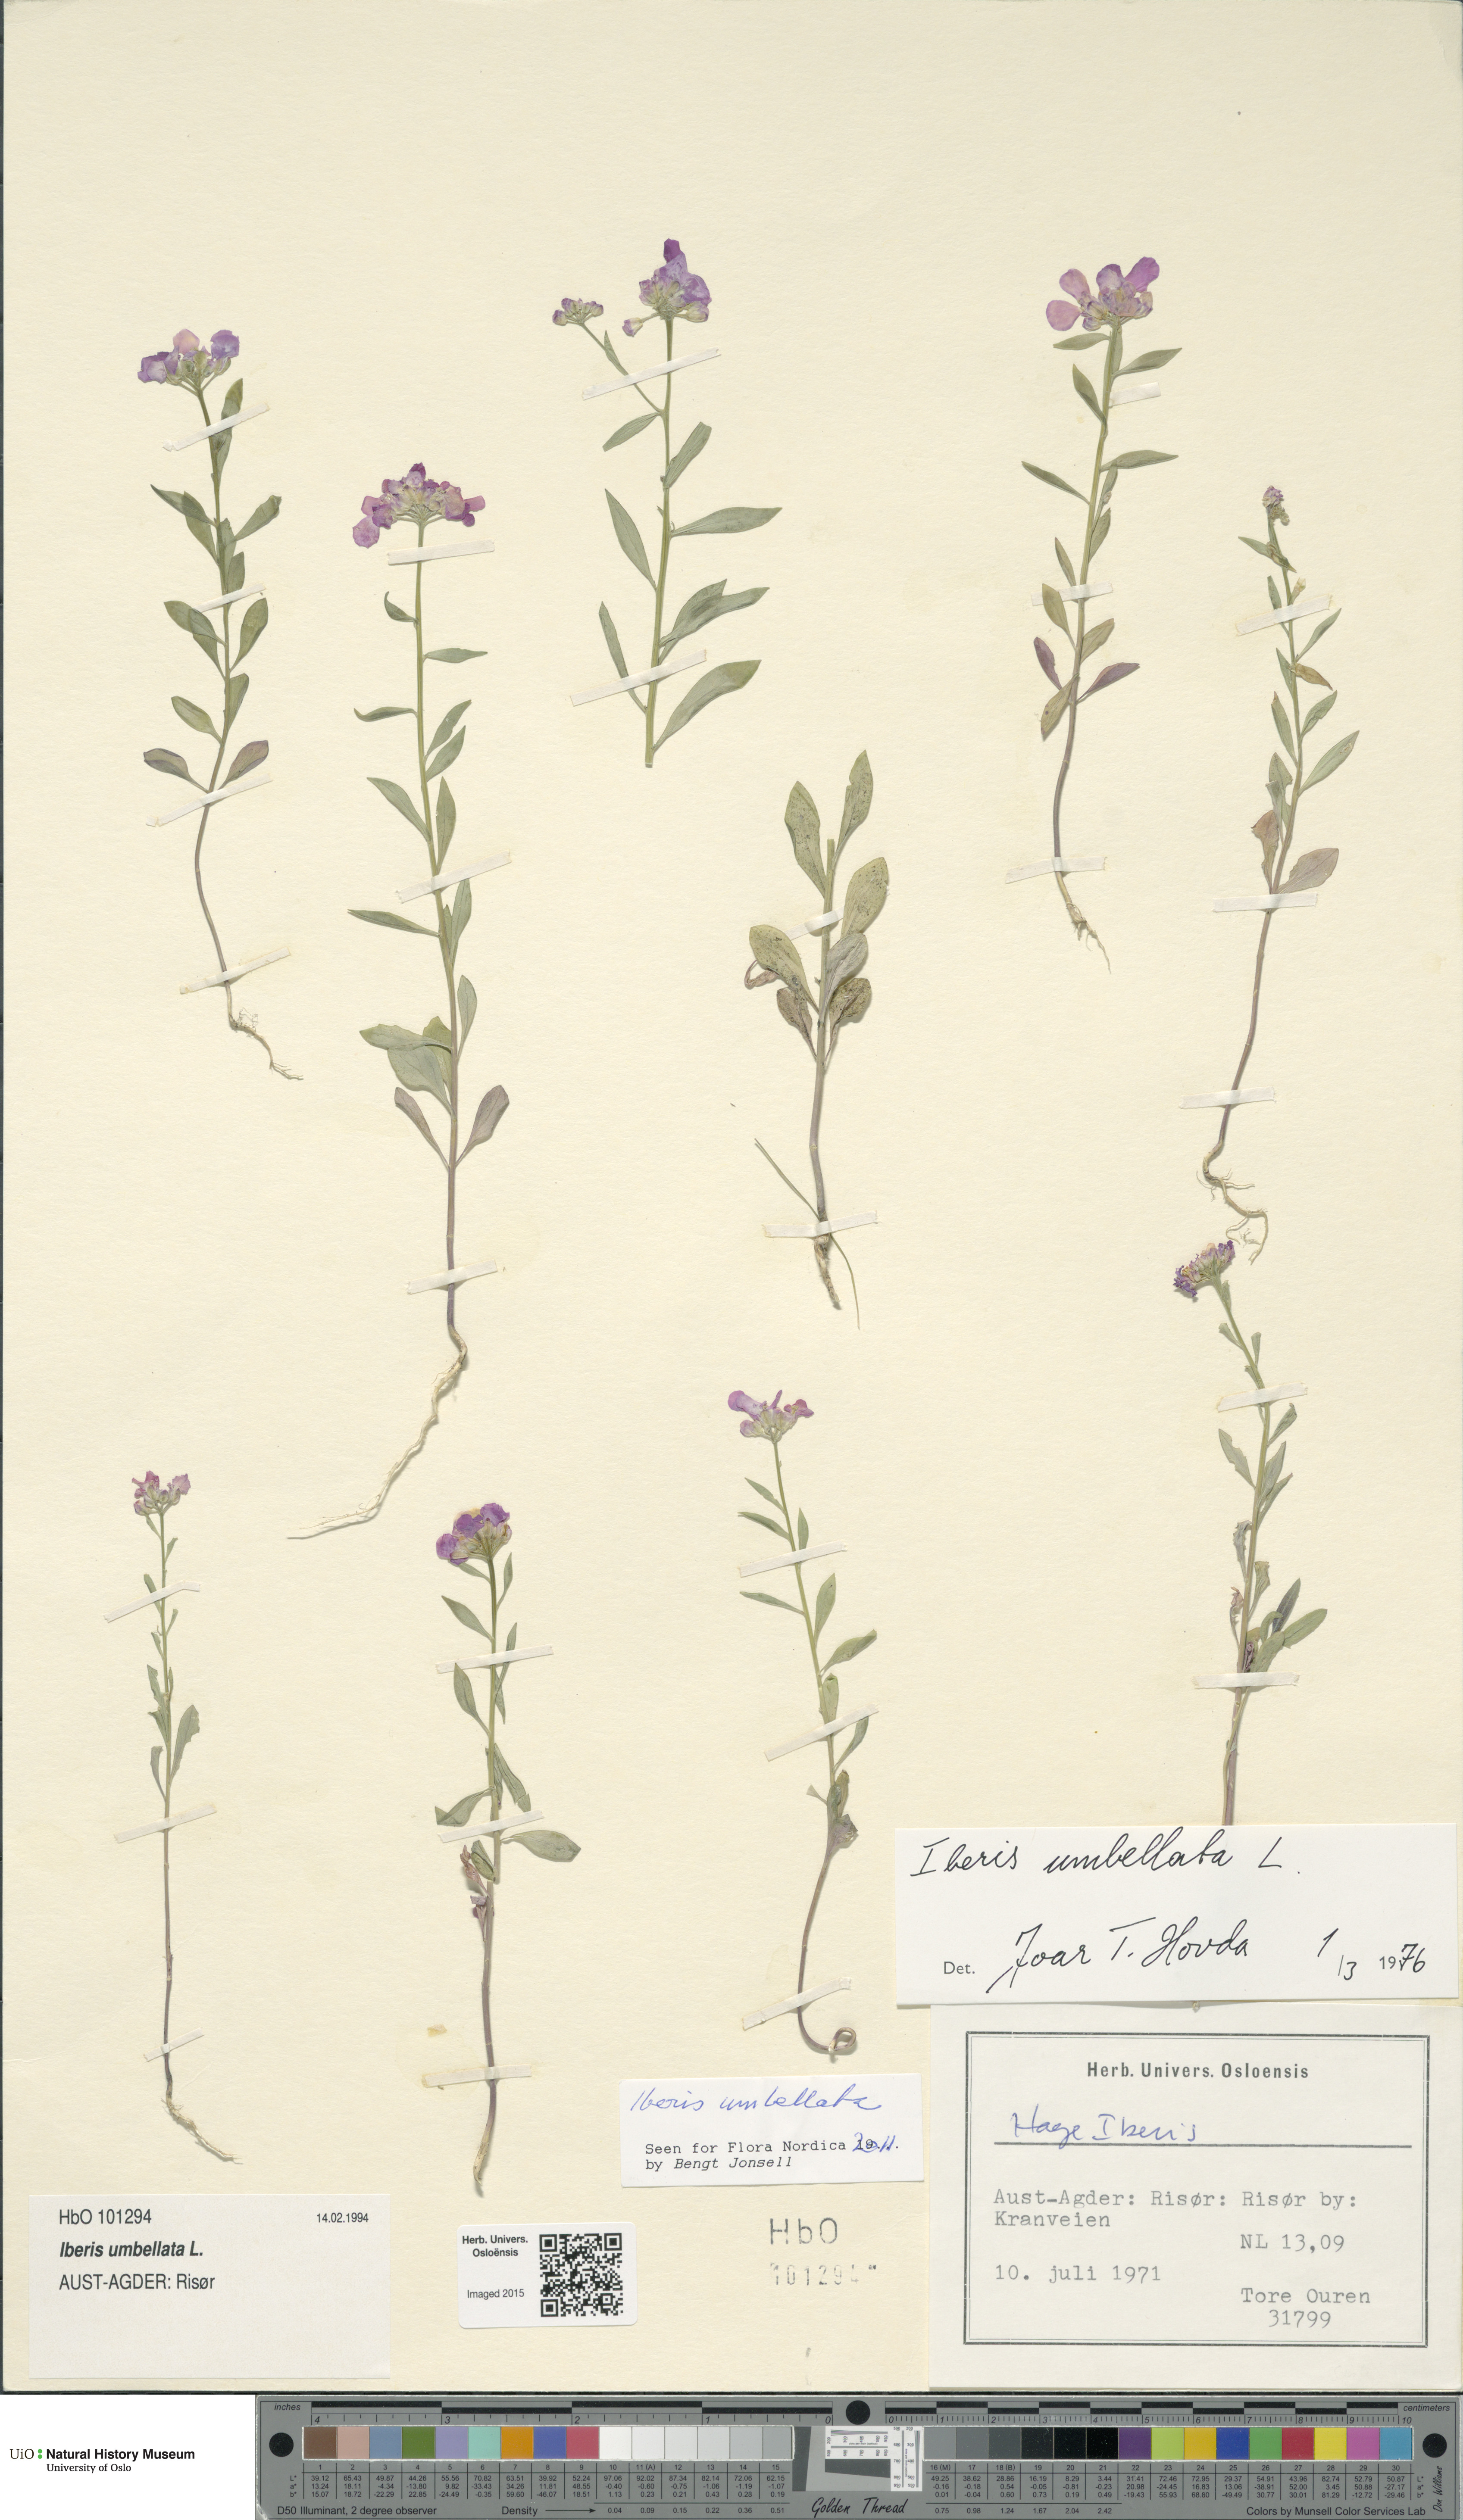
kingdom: Plantae
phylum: Tracheophyta
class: Magnoliopsida
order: Brassicales
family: Brassicaceae
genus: Iberis
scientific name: Iberis umbellata
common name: Globe candytuft
